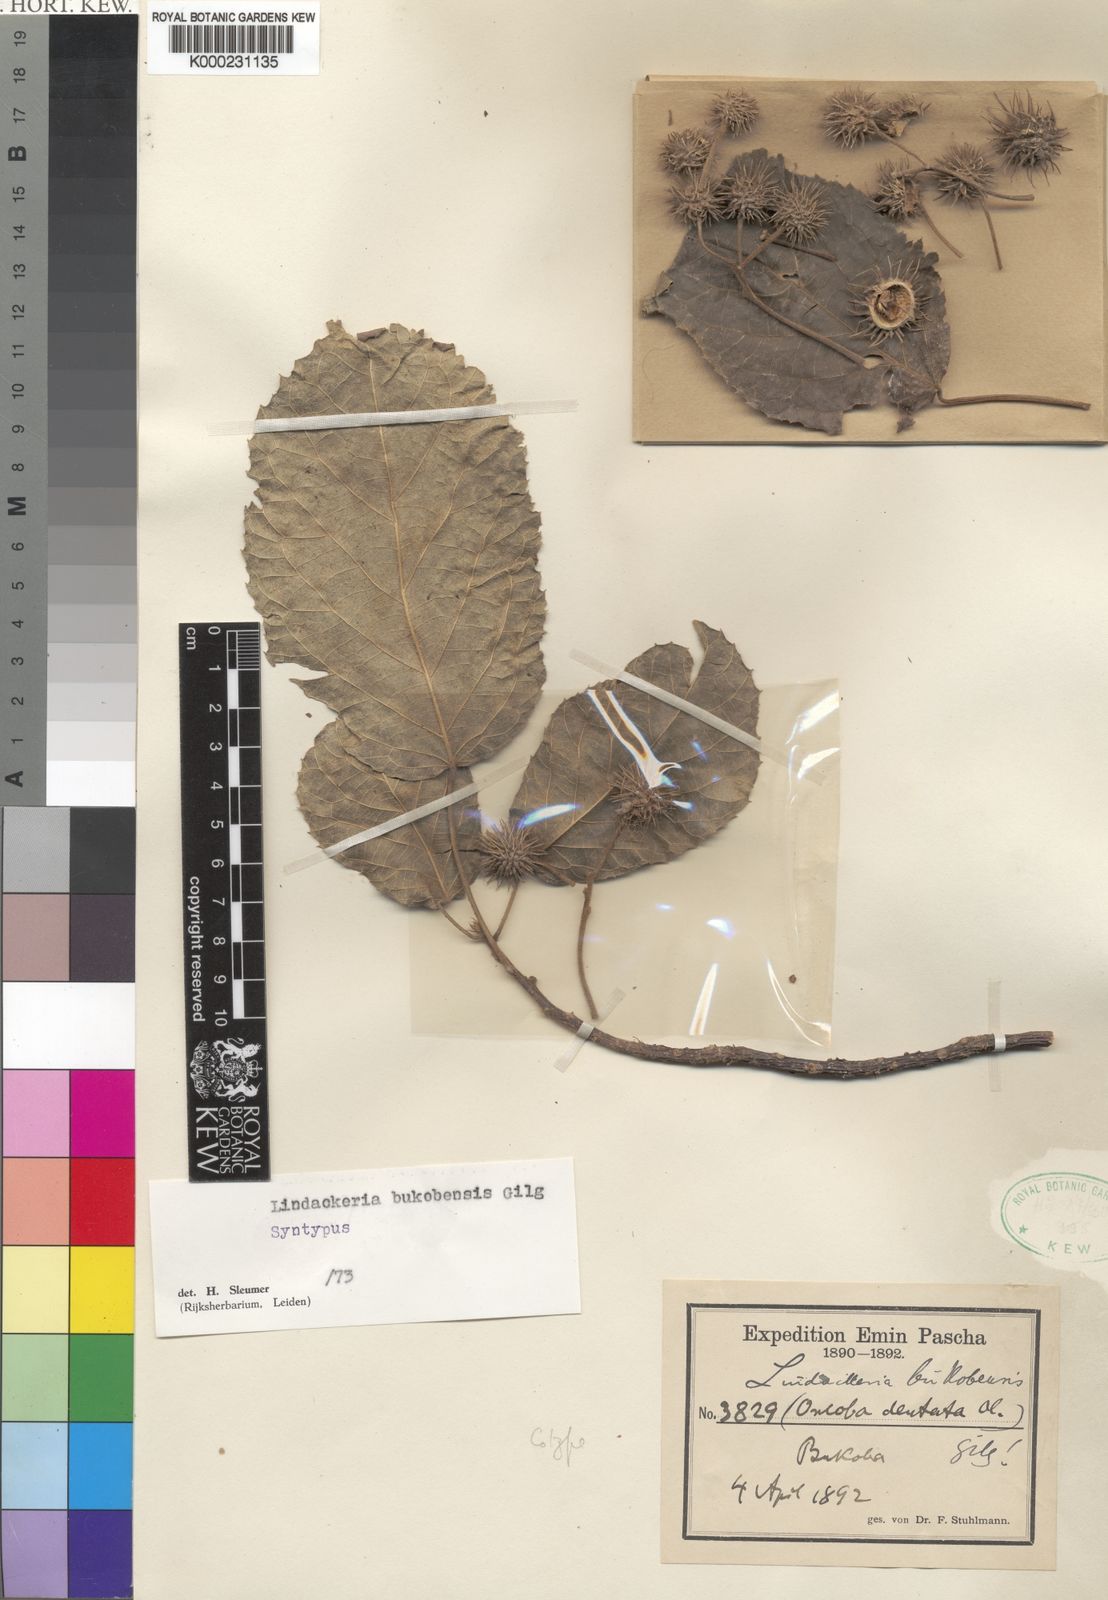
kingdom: Plantae
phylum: Tracheophyta
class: Magnoliopsida
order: Malpighiales
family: Achariaceae
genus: Lindackeria
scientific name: Lindackeria bukobensis
